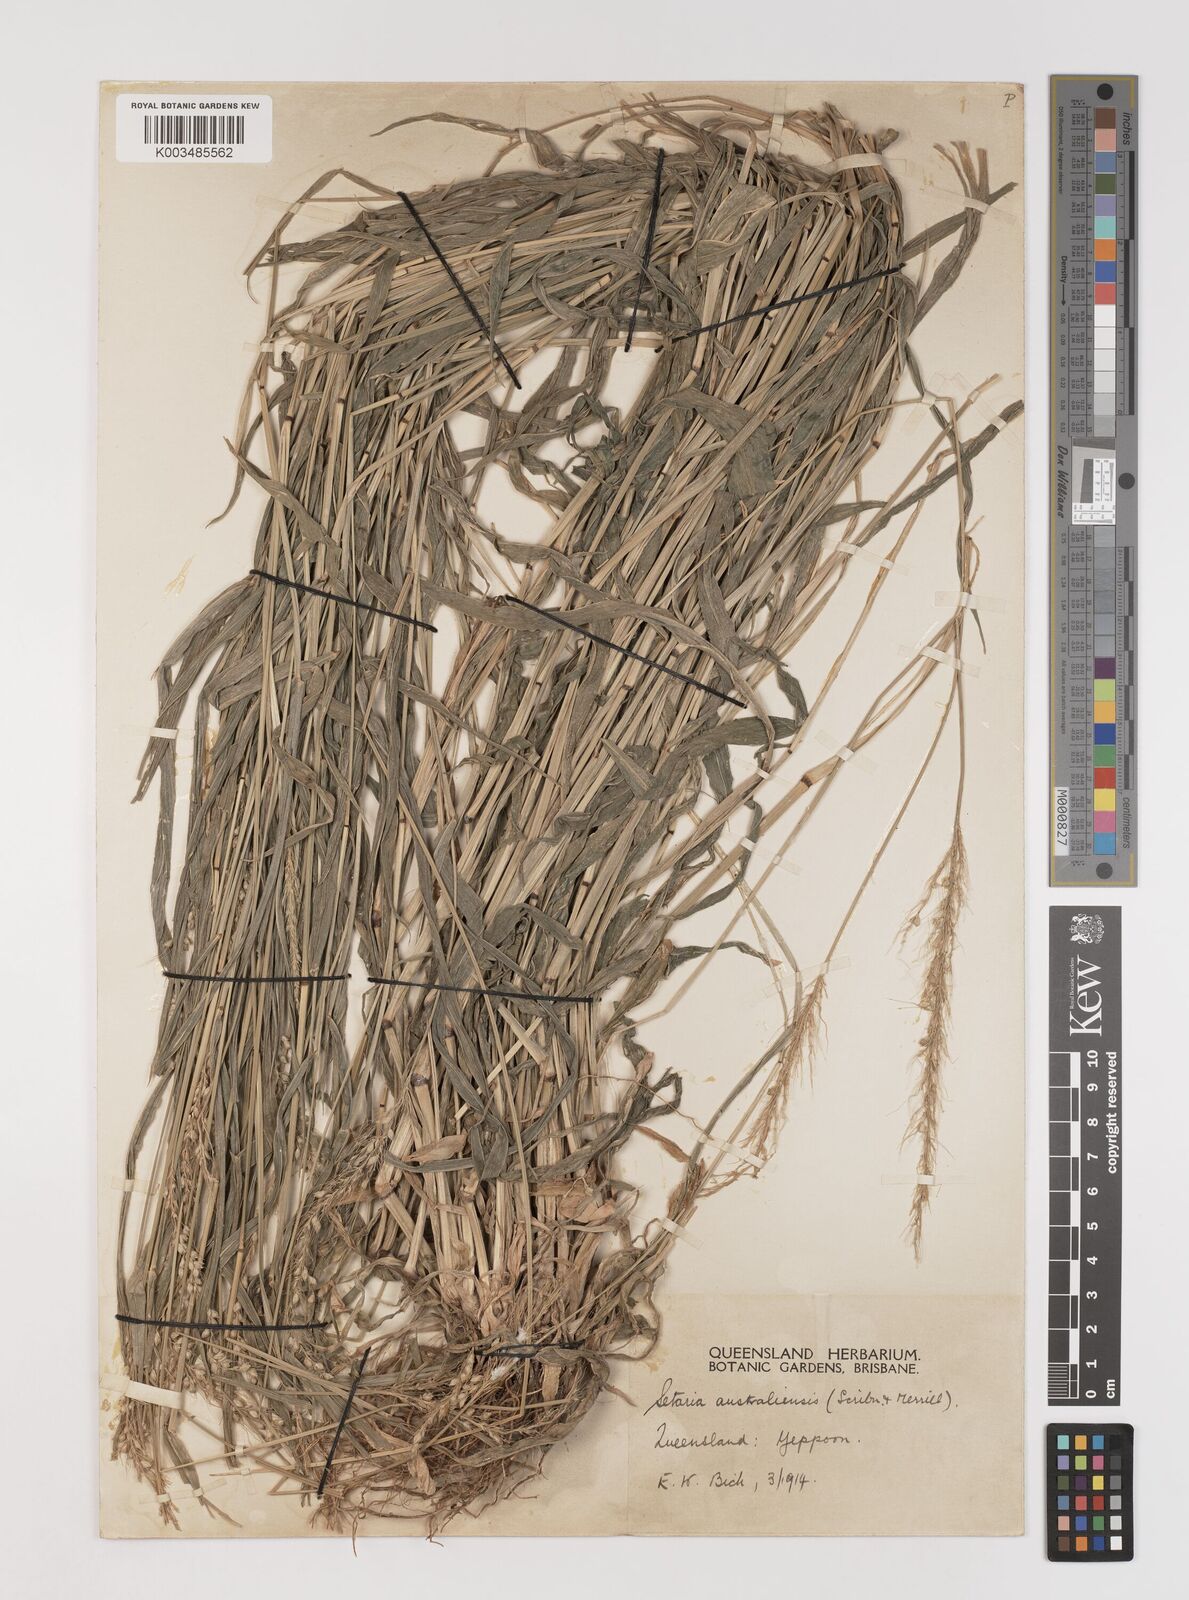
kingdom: Plantae
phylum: Tracheophyta
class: Liliopsida
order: Poales
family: Poaceae
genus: Setaria
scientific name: Setaria
